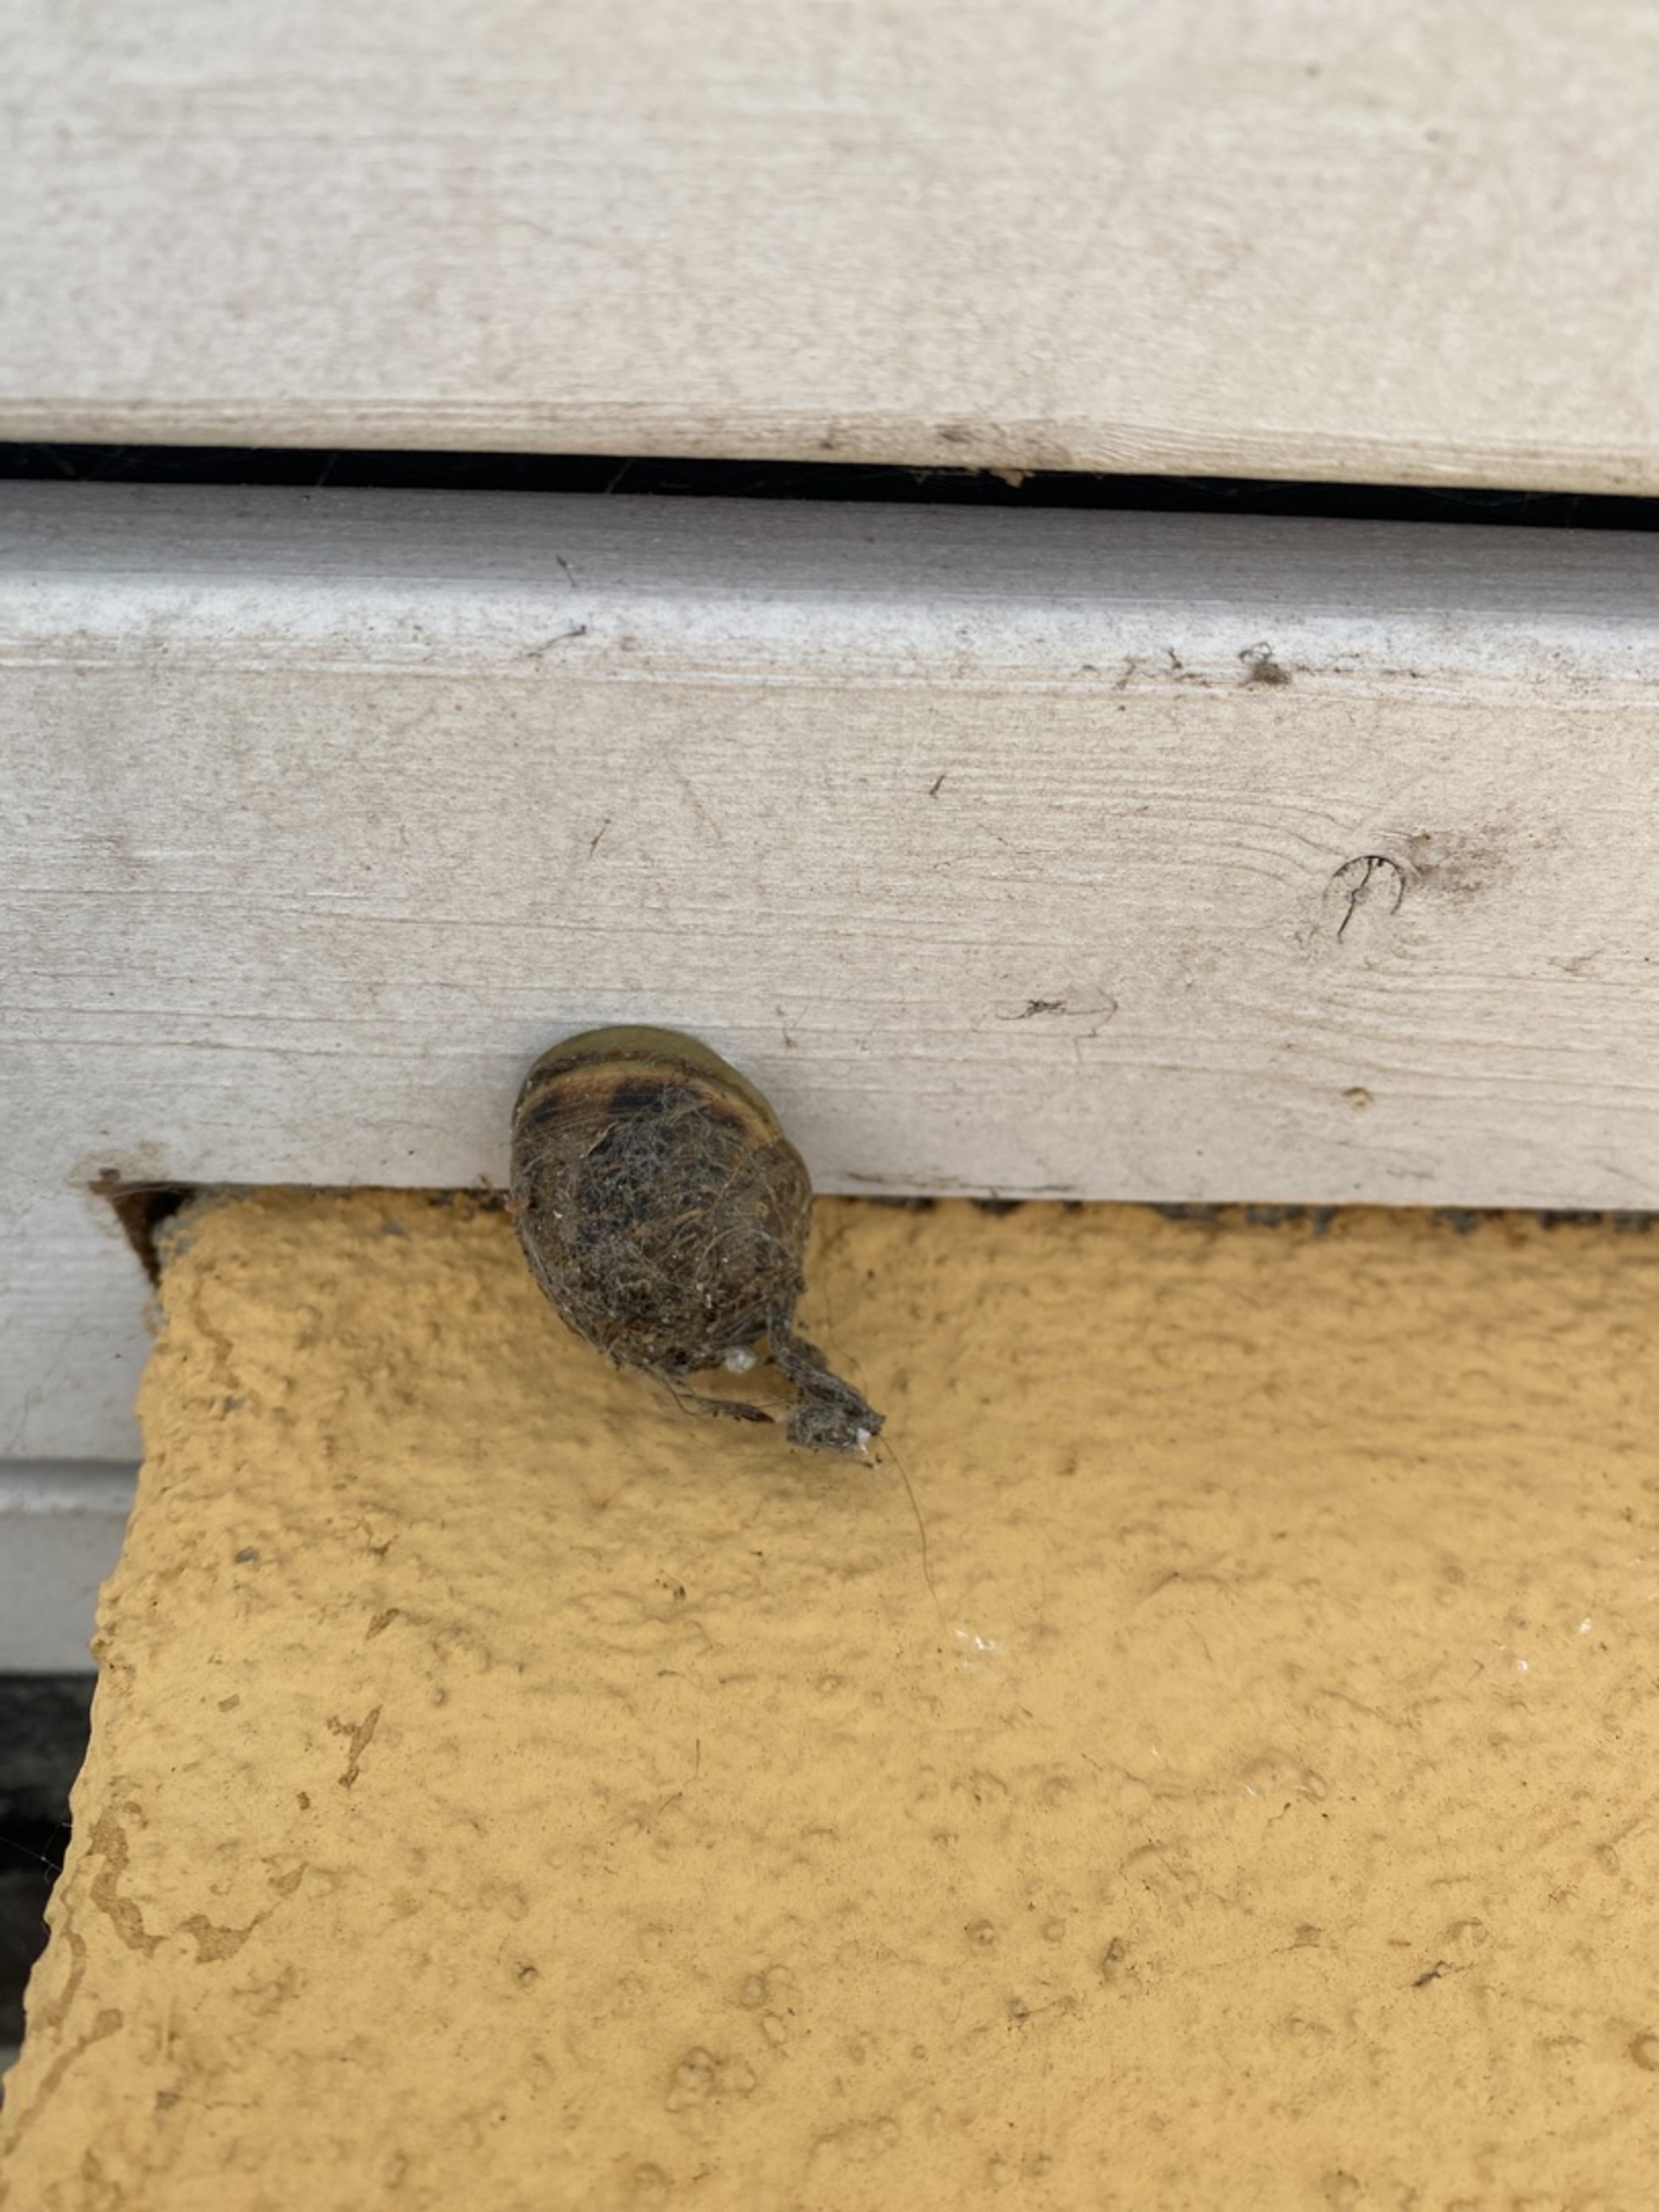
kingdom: Animalia
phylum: Mollusca
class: Gastropoda
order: Stylommatophora
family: Helicidae
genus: Cornu
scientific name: Cornu aspersum
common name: Plettet voldsnegl
